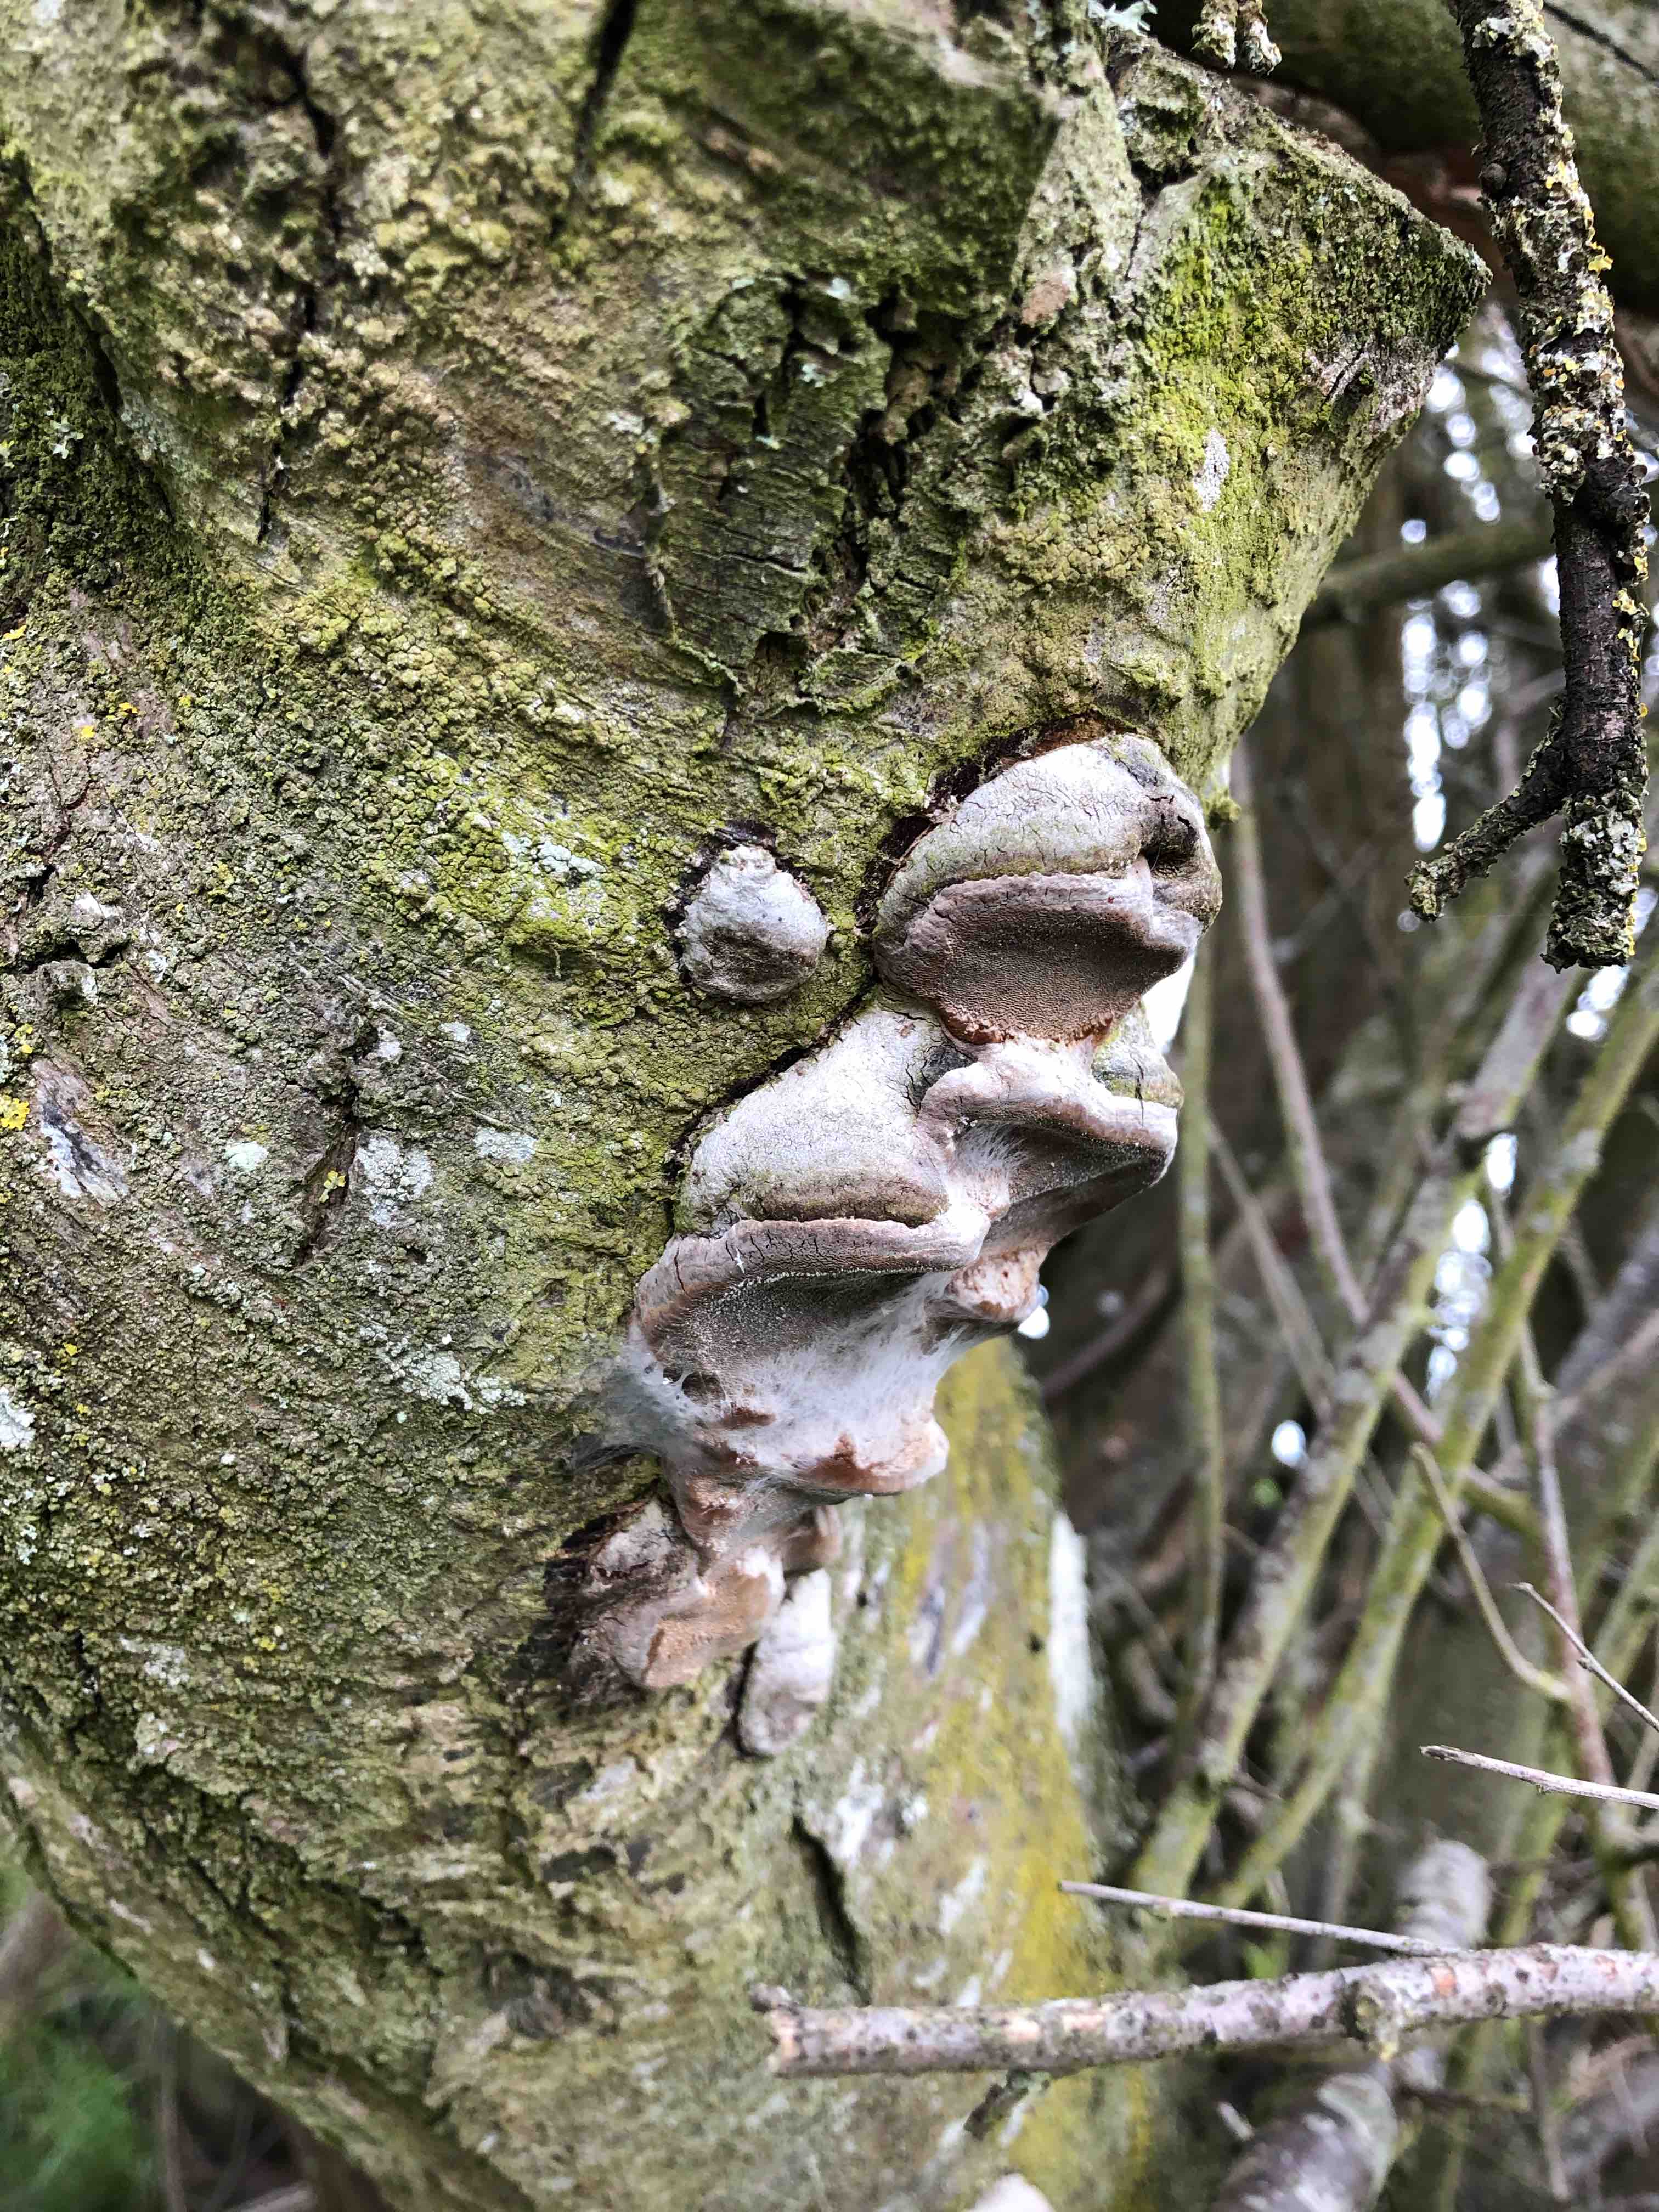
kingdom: Fungi
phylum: Basidiomycota
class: Agaricomycetes
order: Hymenochaetales
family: Hymenochaetaceae
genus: Phellinus
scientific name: Phellinus pomaceus
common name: blomme-ildporesvamp
